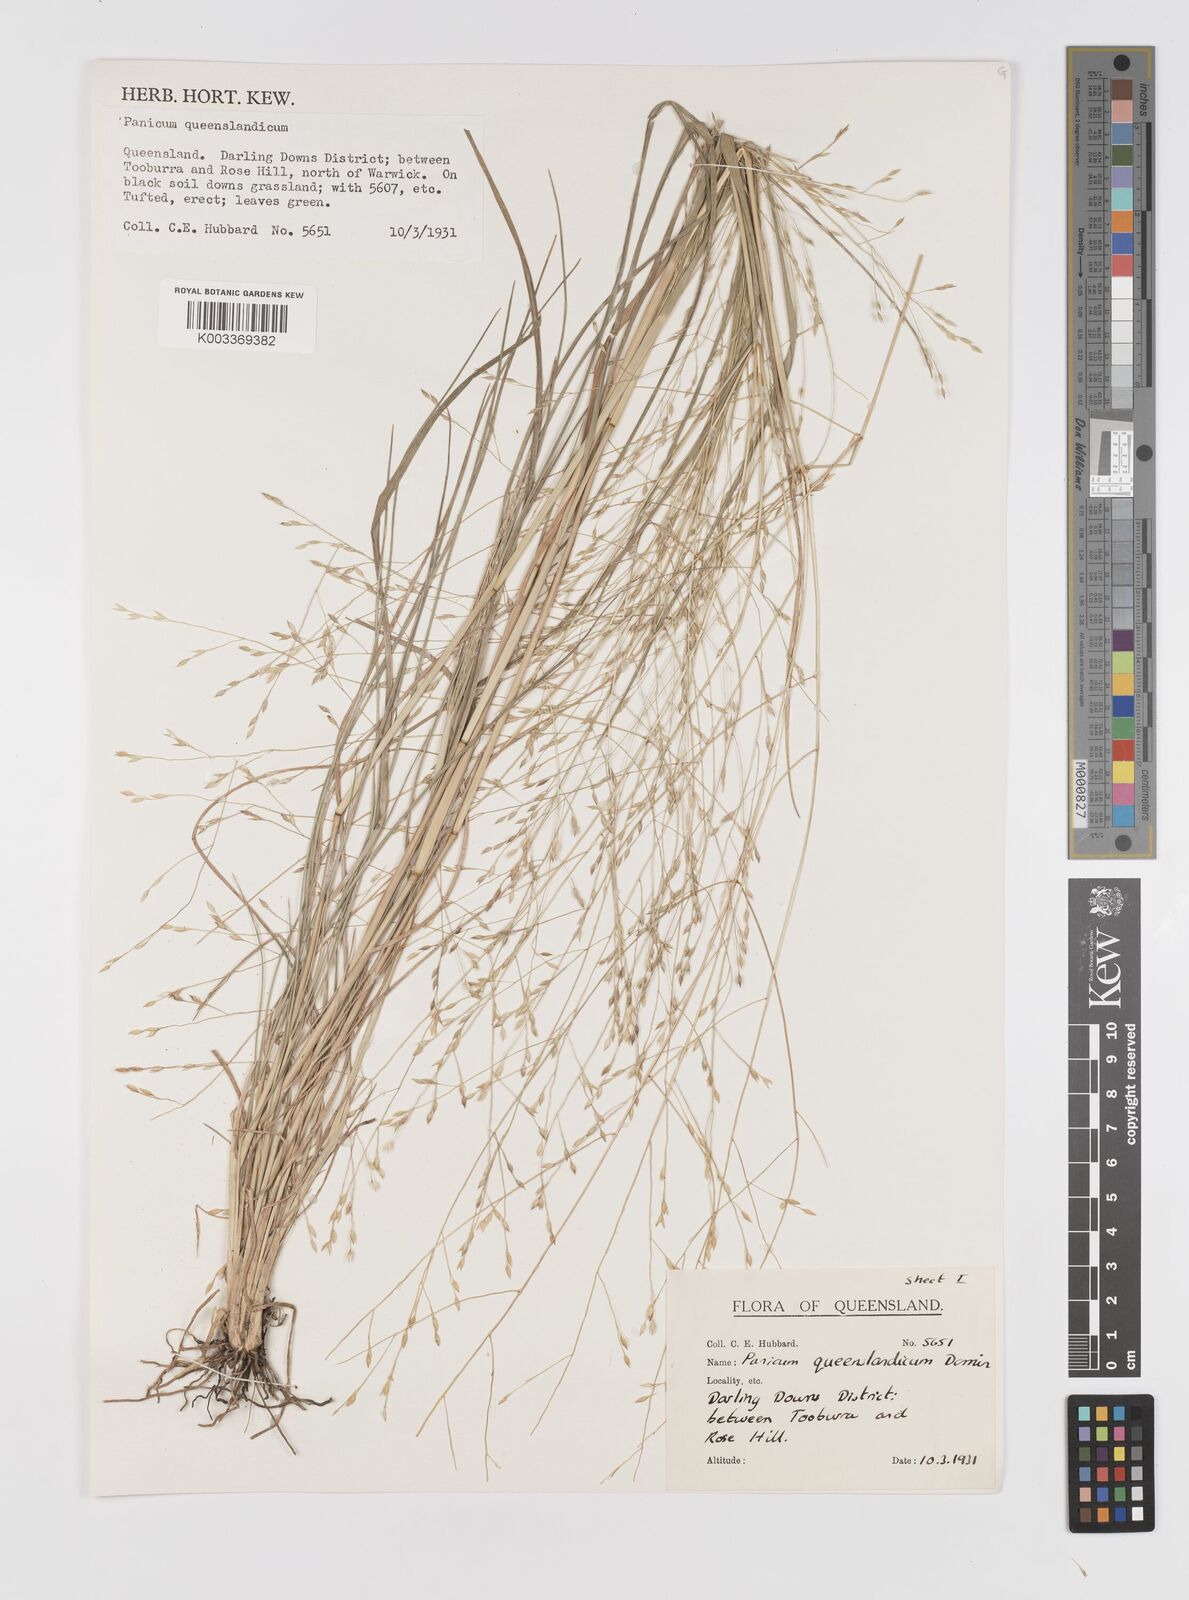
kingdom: Plantae
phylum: Tracheophyta
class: Liliopsida
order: Poales
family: Poaceae
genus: Panicum
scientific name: Panicum queenslandicum
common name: Yabila grass
